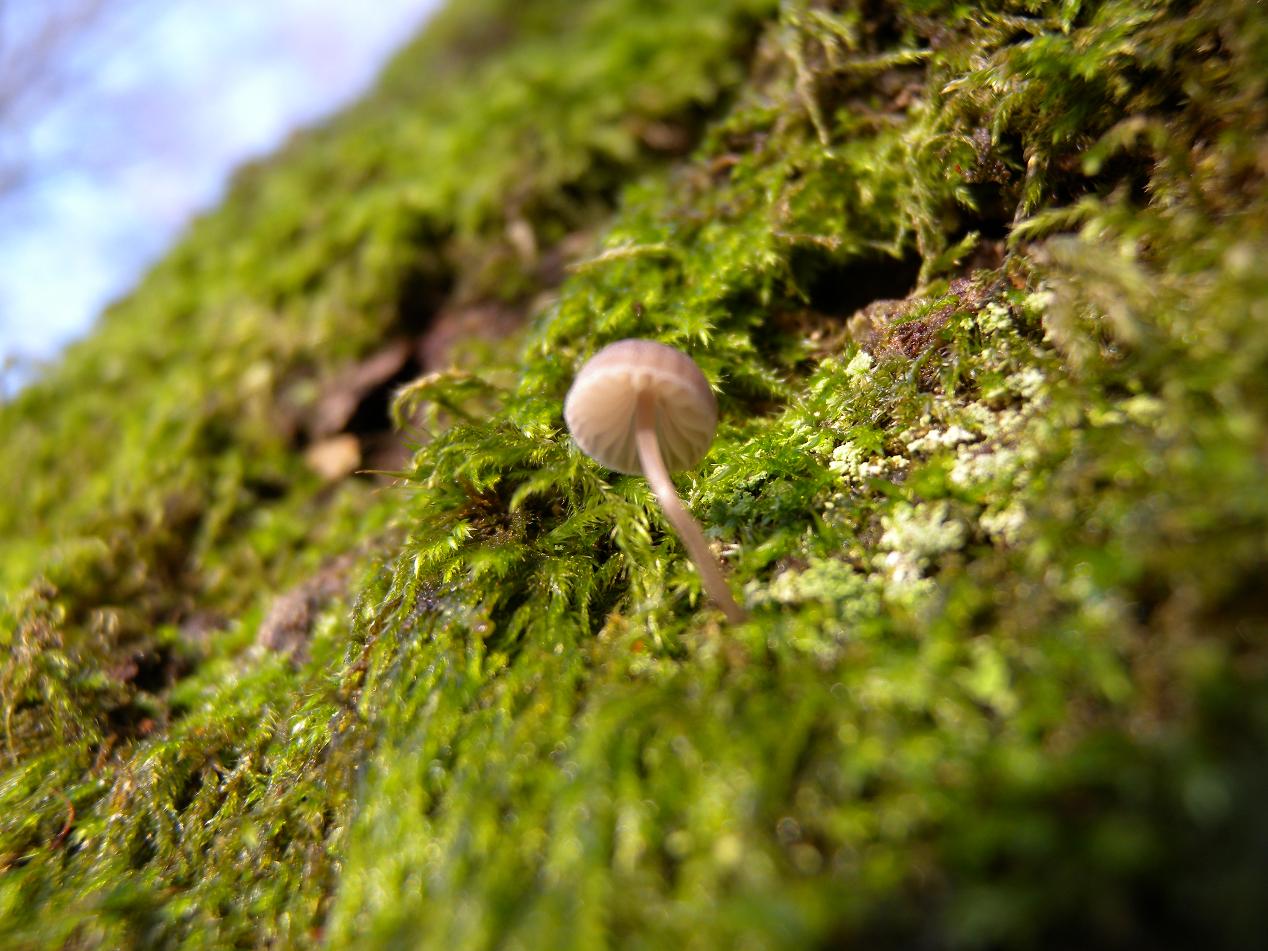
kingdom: Fungi
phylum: Basidiomycota
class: Agaricomycetes
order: Agaricales
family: Mycenaceae
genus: Mycena
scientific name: Mycena erubescens
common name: galde-huesvamp
